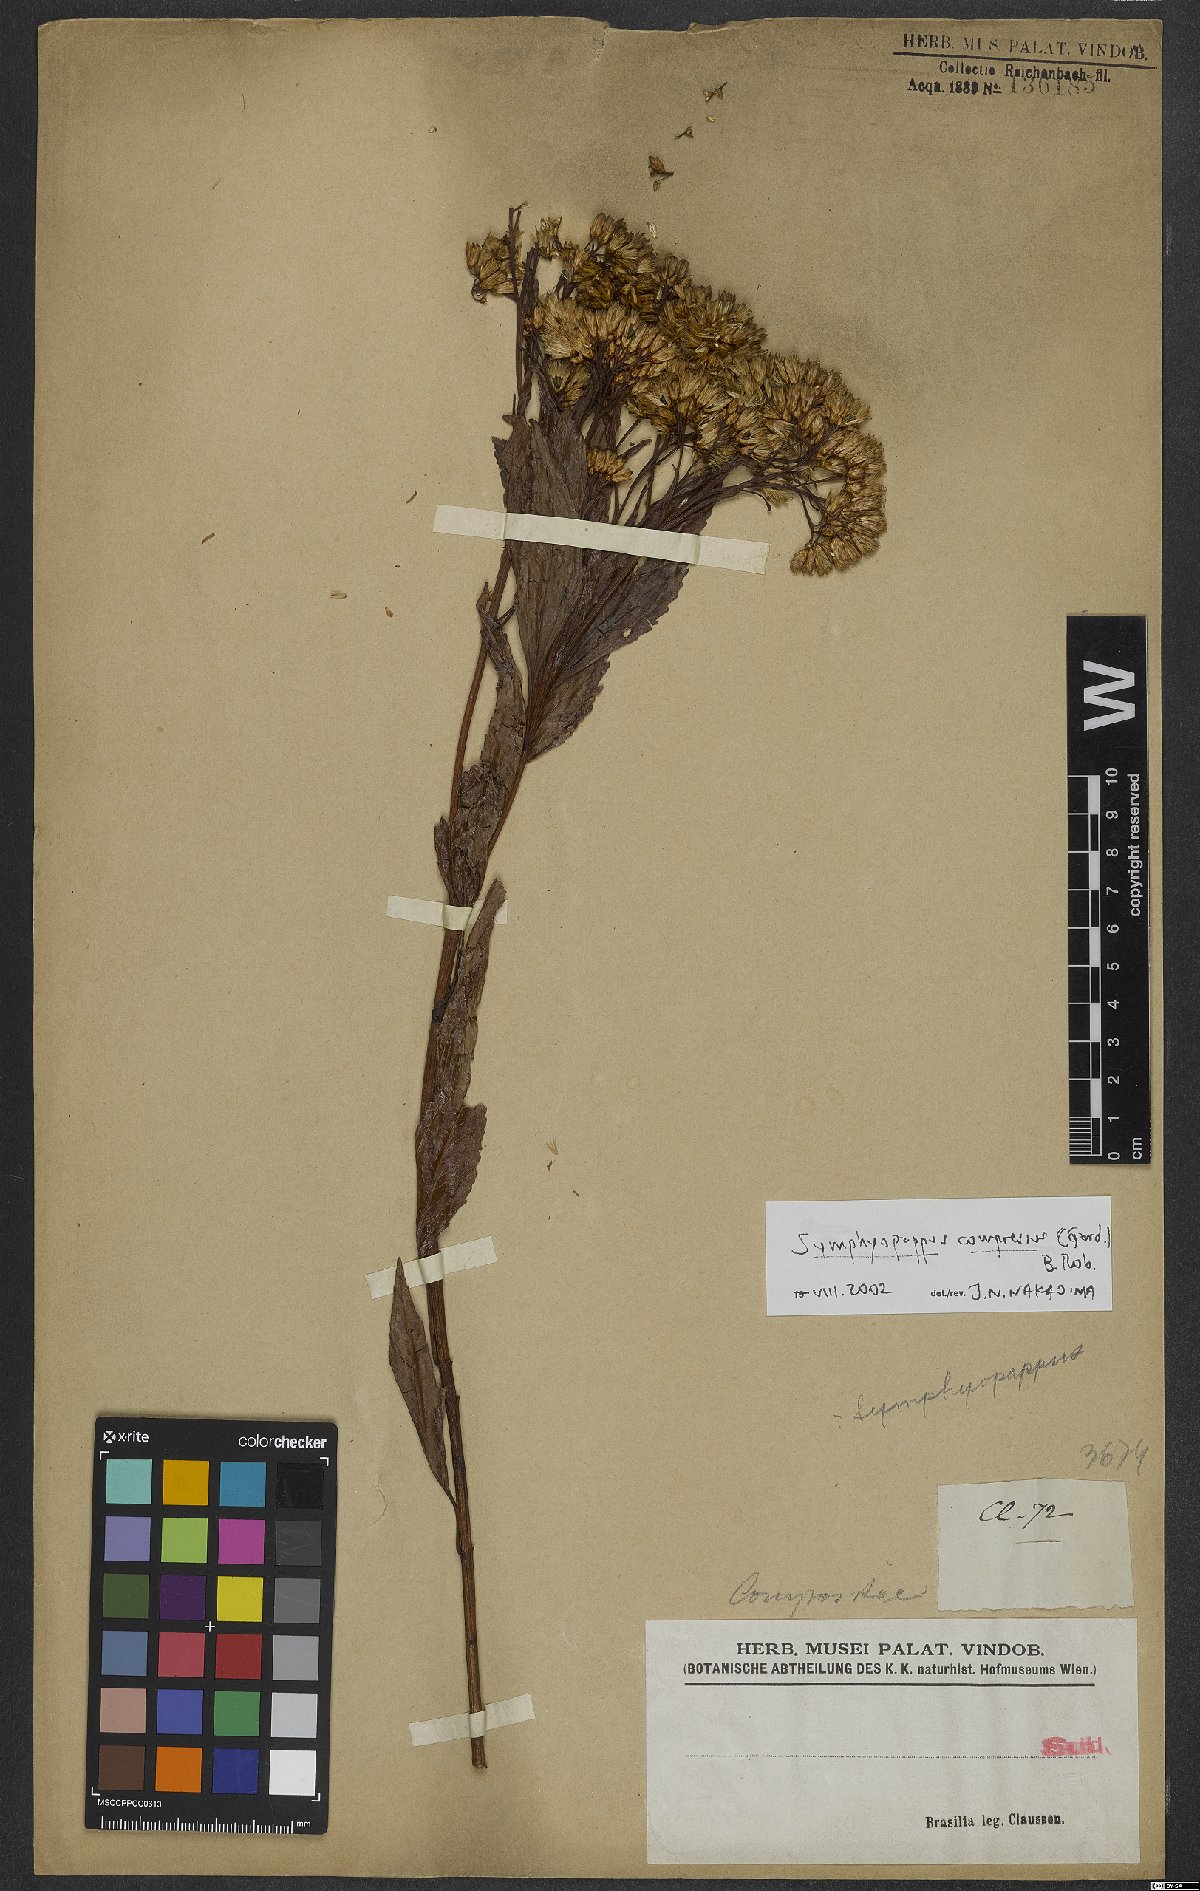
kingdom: Plantae
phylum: Tracheophyta
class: Magnoliopsida
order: Asterales
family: Asteraceae
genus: Symphyopappus
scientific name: Symphyopappus compressus
